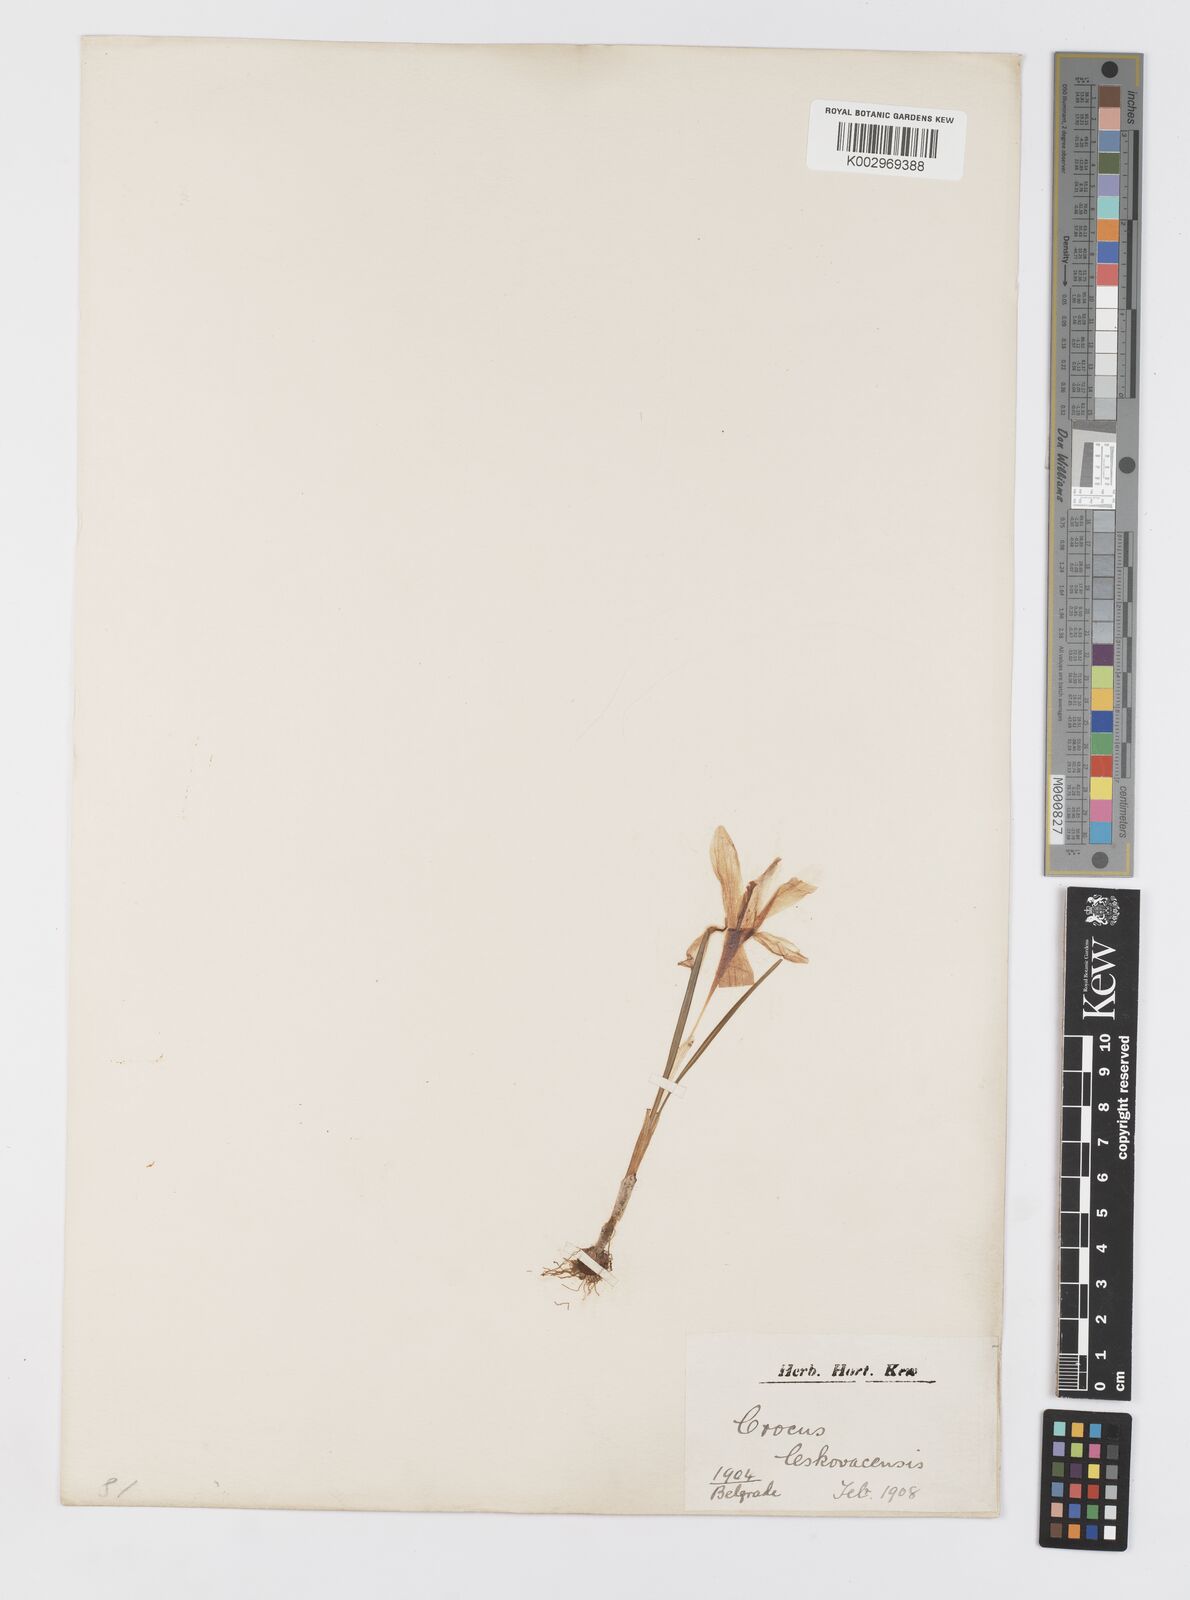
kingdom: Plantae
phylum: Tracheophyta
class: Liliopsida
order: Asparagales
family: Iridaceae
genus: Crocus
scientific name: Crocus
